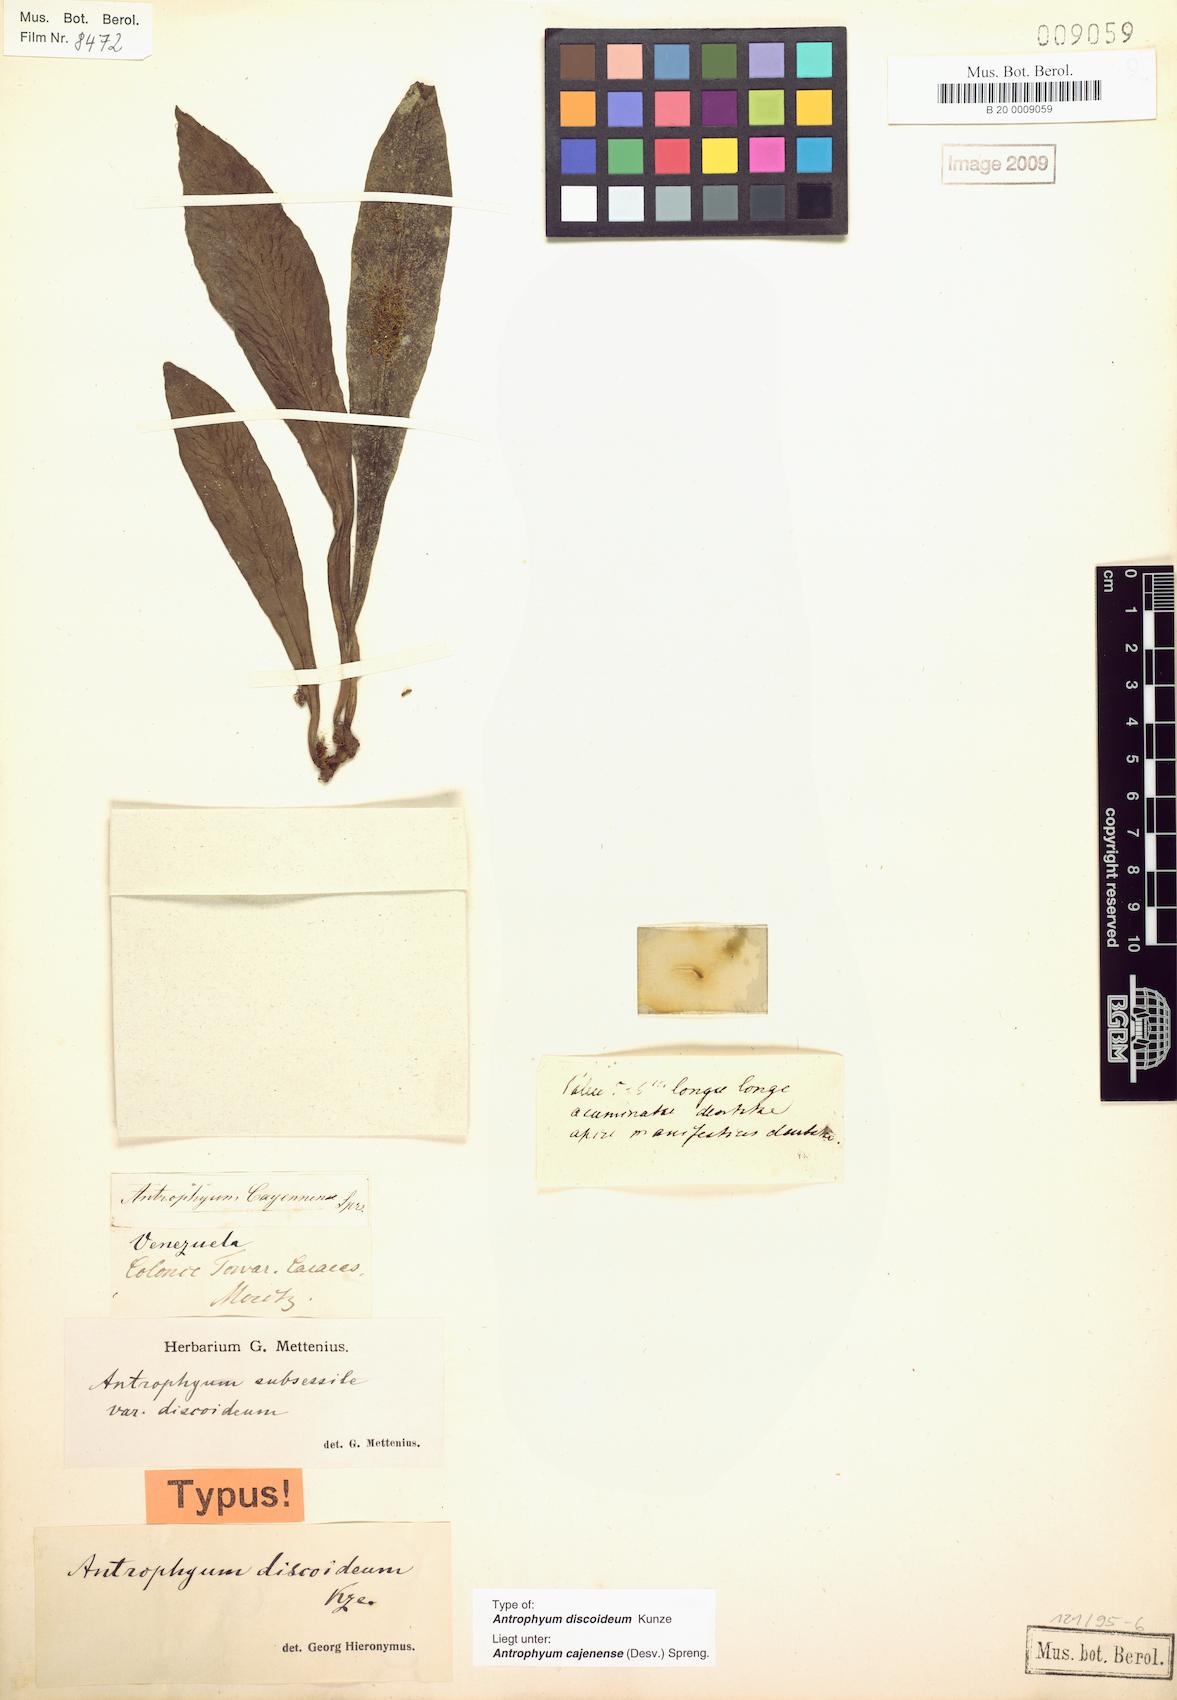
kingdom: Plantae
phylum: Tracheophyta
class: Polypodiopsida
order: Polypodiales
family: Pteridaceae
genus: Polytaenium
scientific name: Polytaenium cajenense
